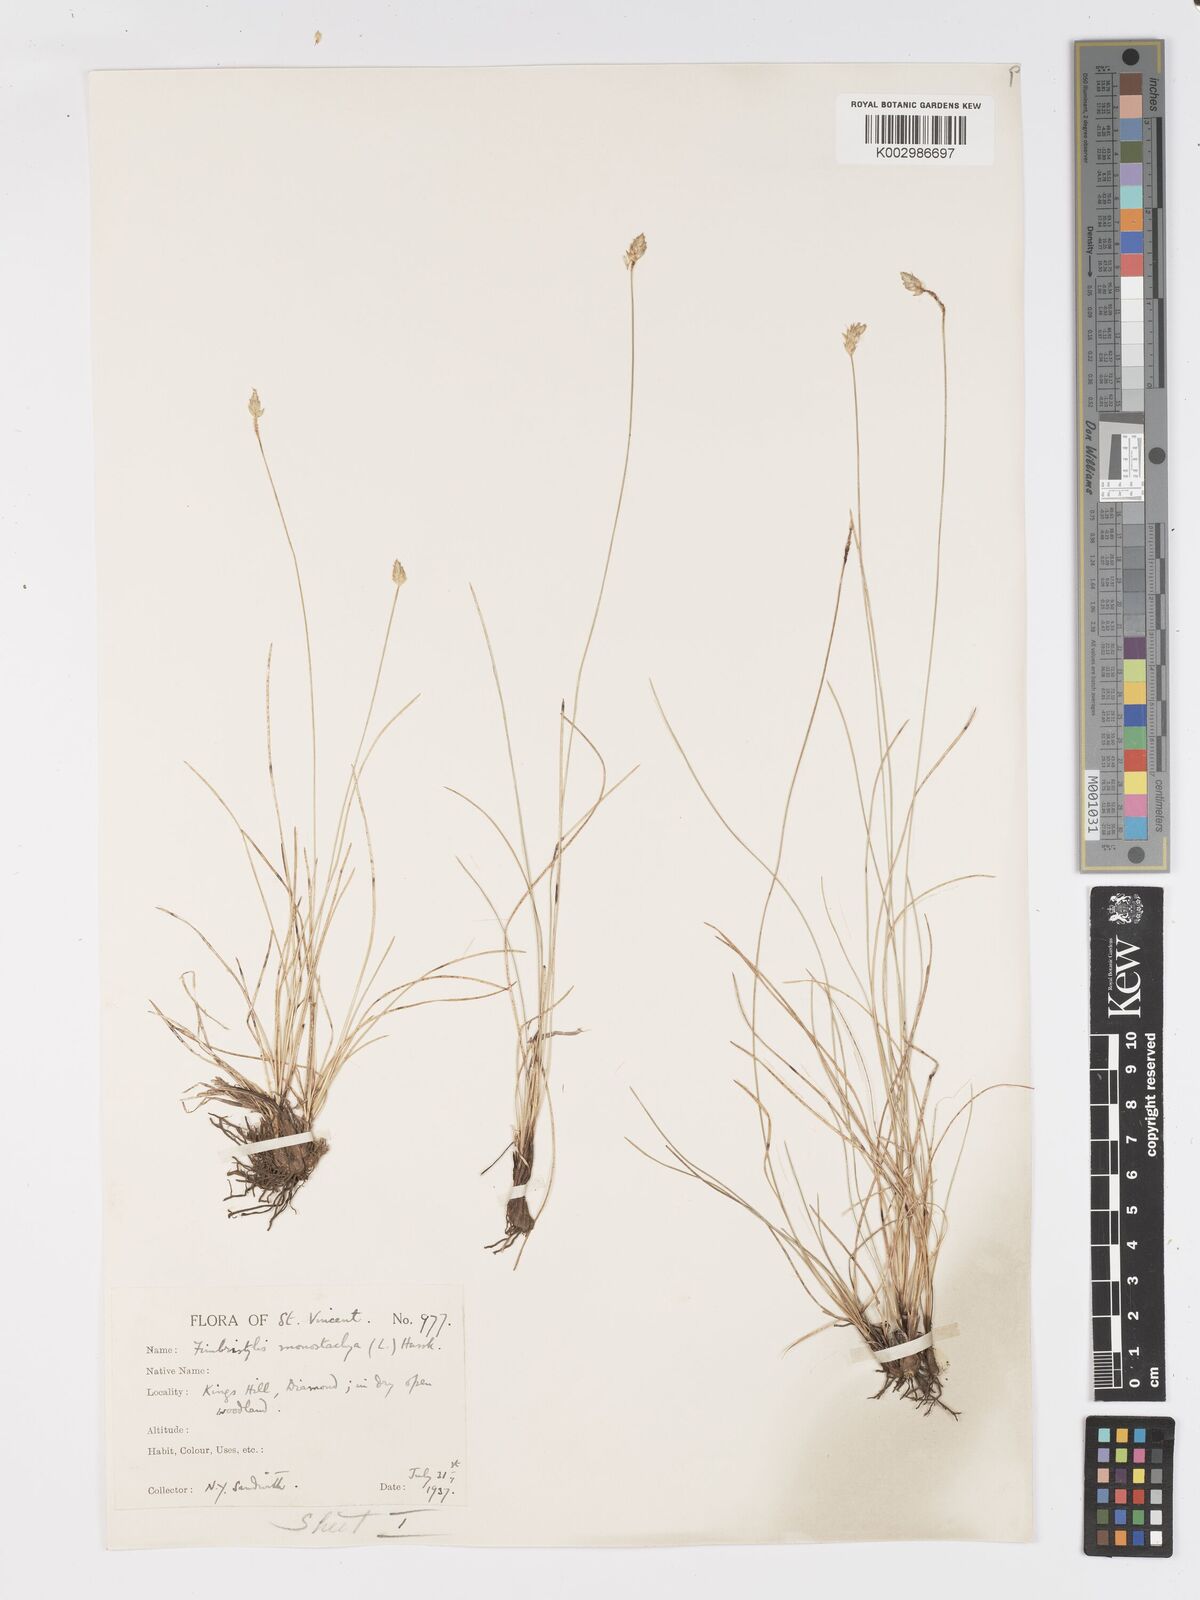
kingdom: Plantae
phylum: Tracheophyta
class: Liliopsida
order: Poales
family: Cyperaceae
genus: Abildgaardia
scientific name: Abildgaardia ovata
